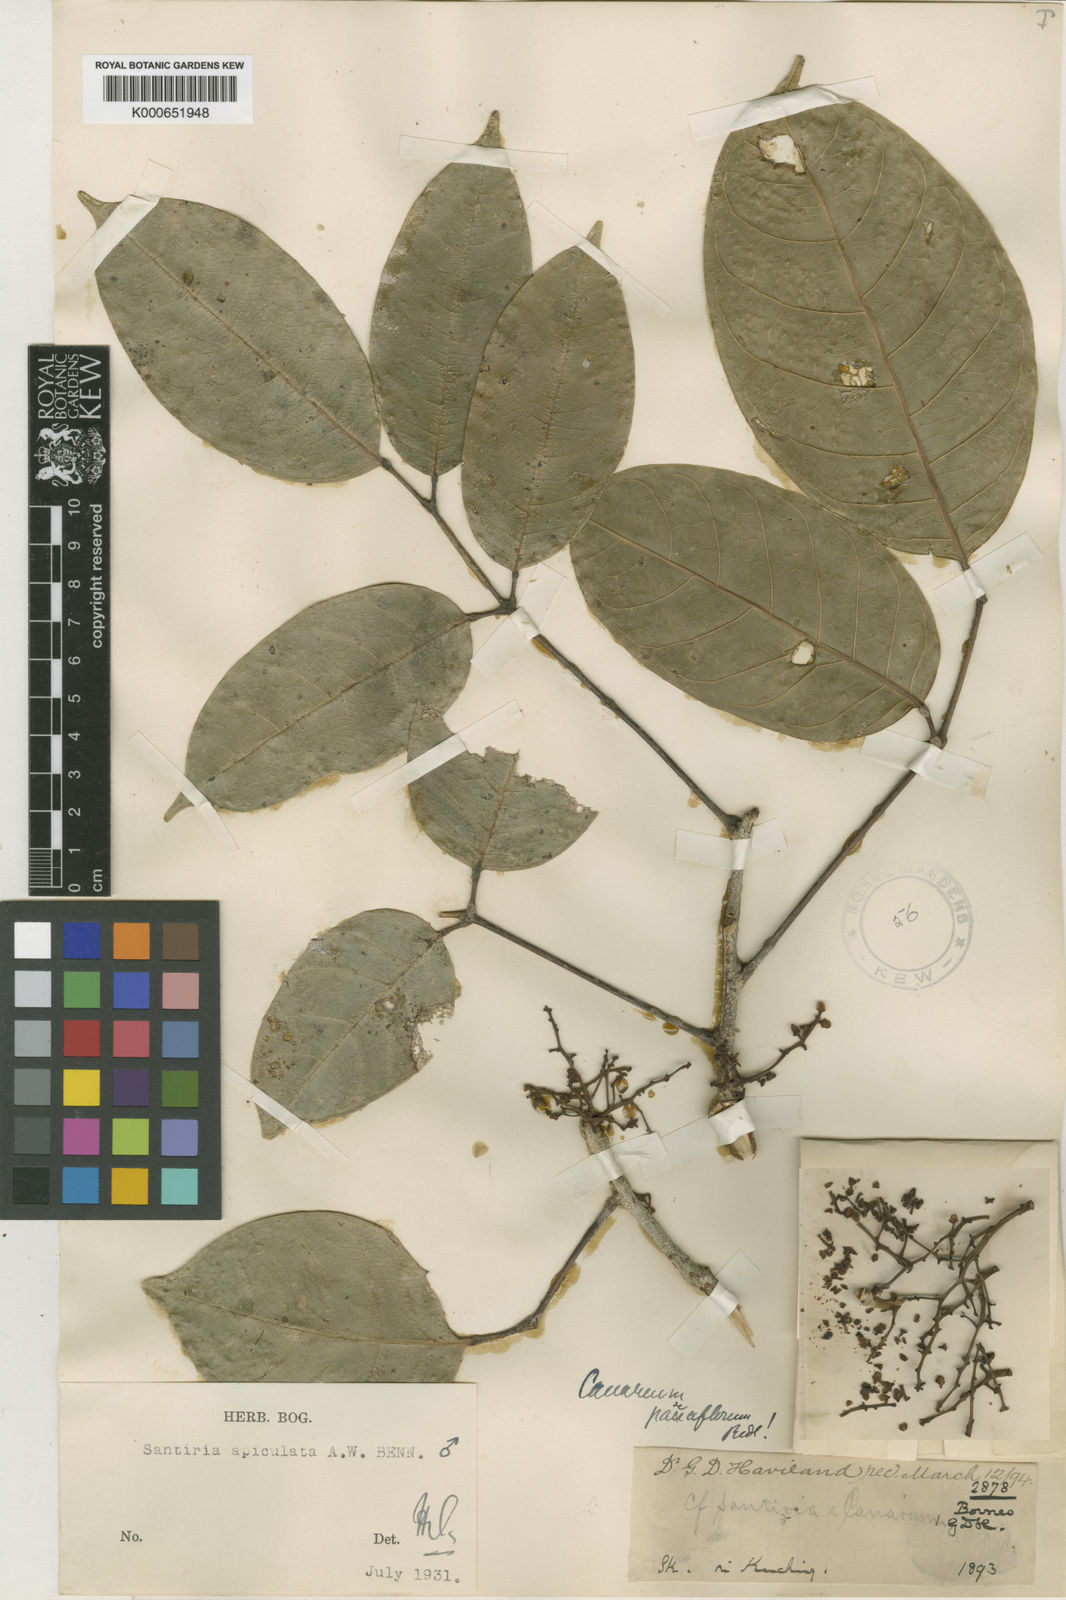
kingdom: Plantae
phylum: Tracheophyta
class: Magnoliopsida
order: Sapindales
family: Burseraceae
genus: Santiria
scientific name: Santiria apiculata
